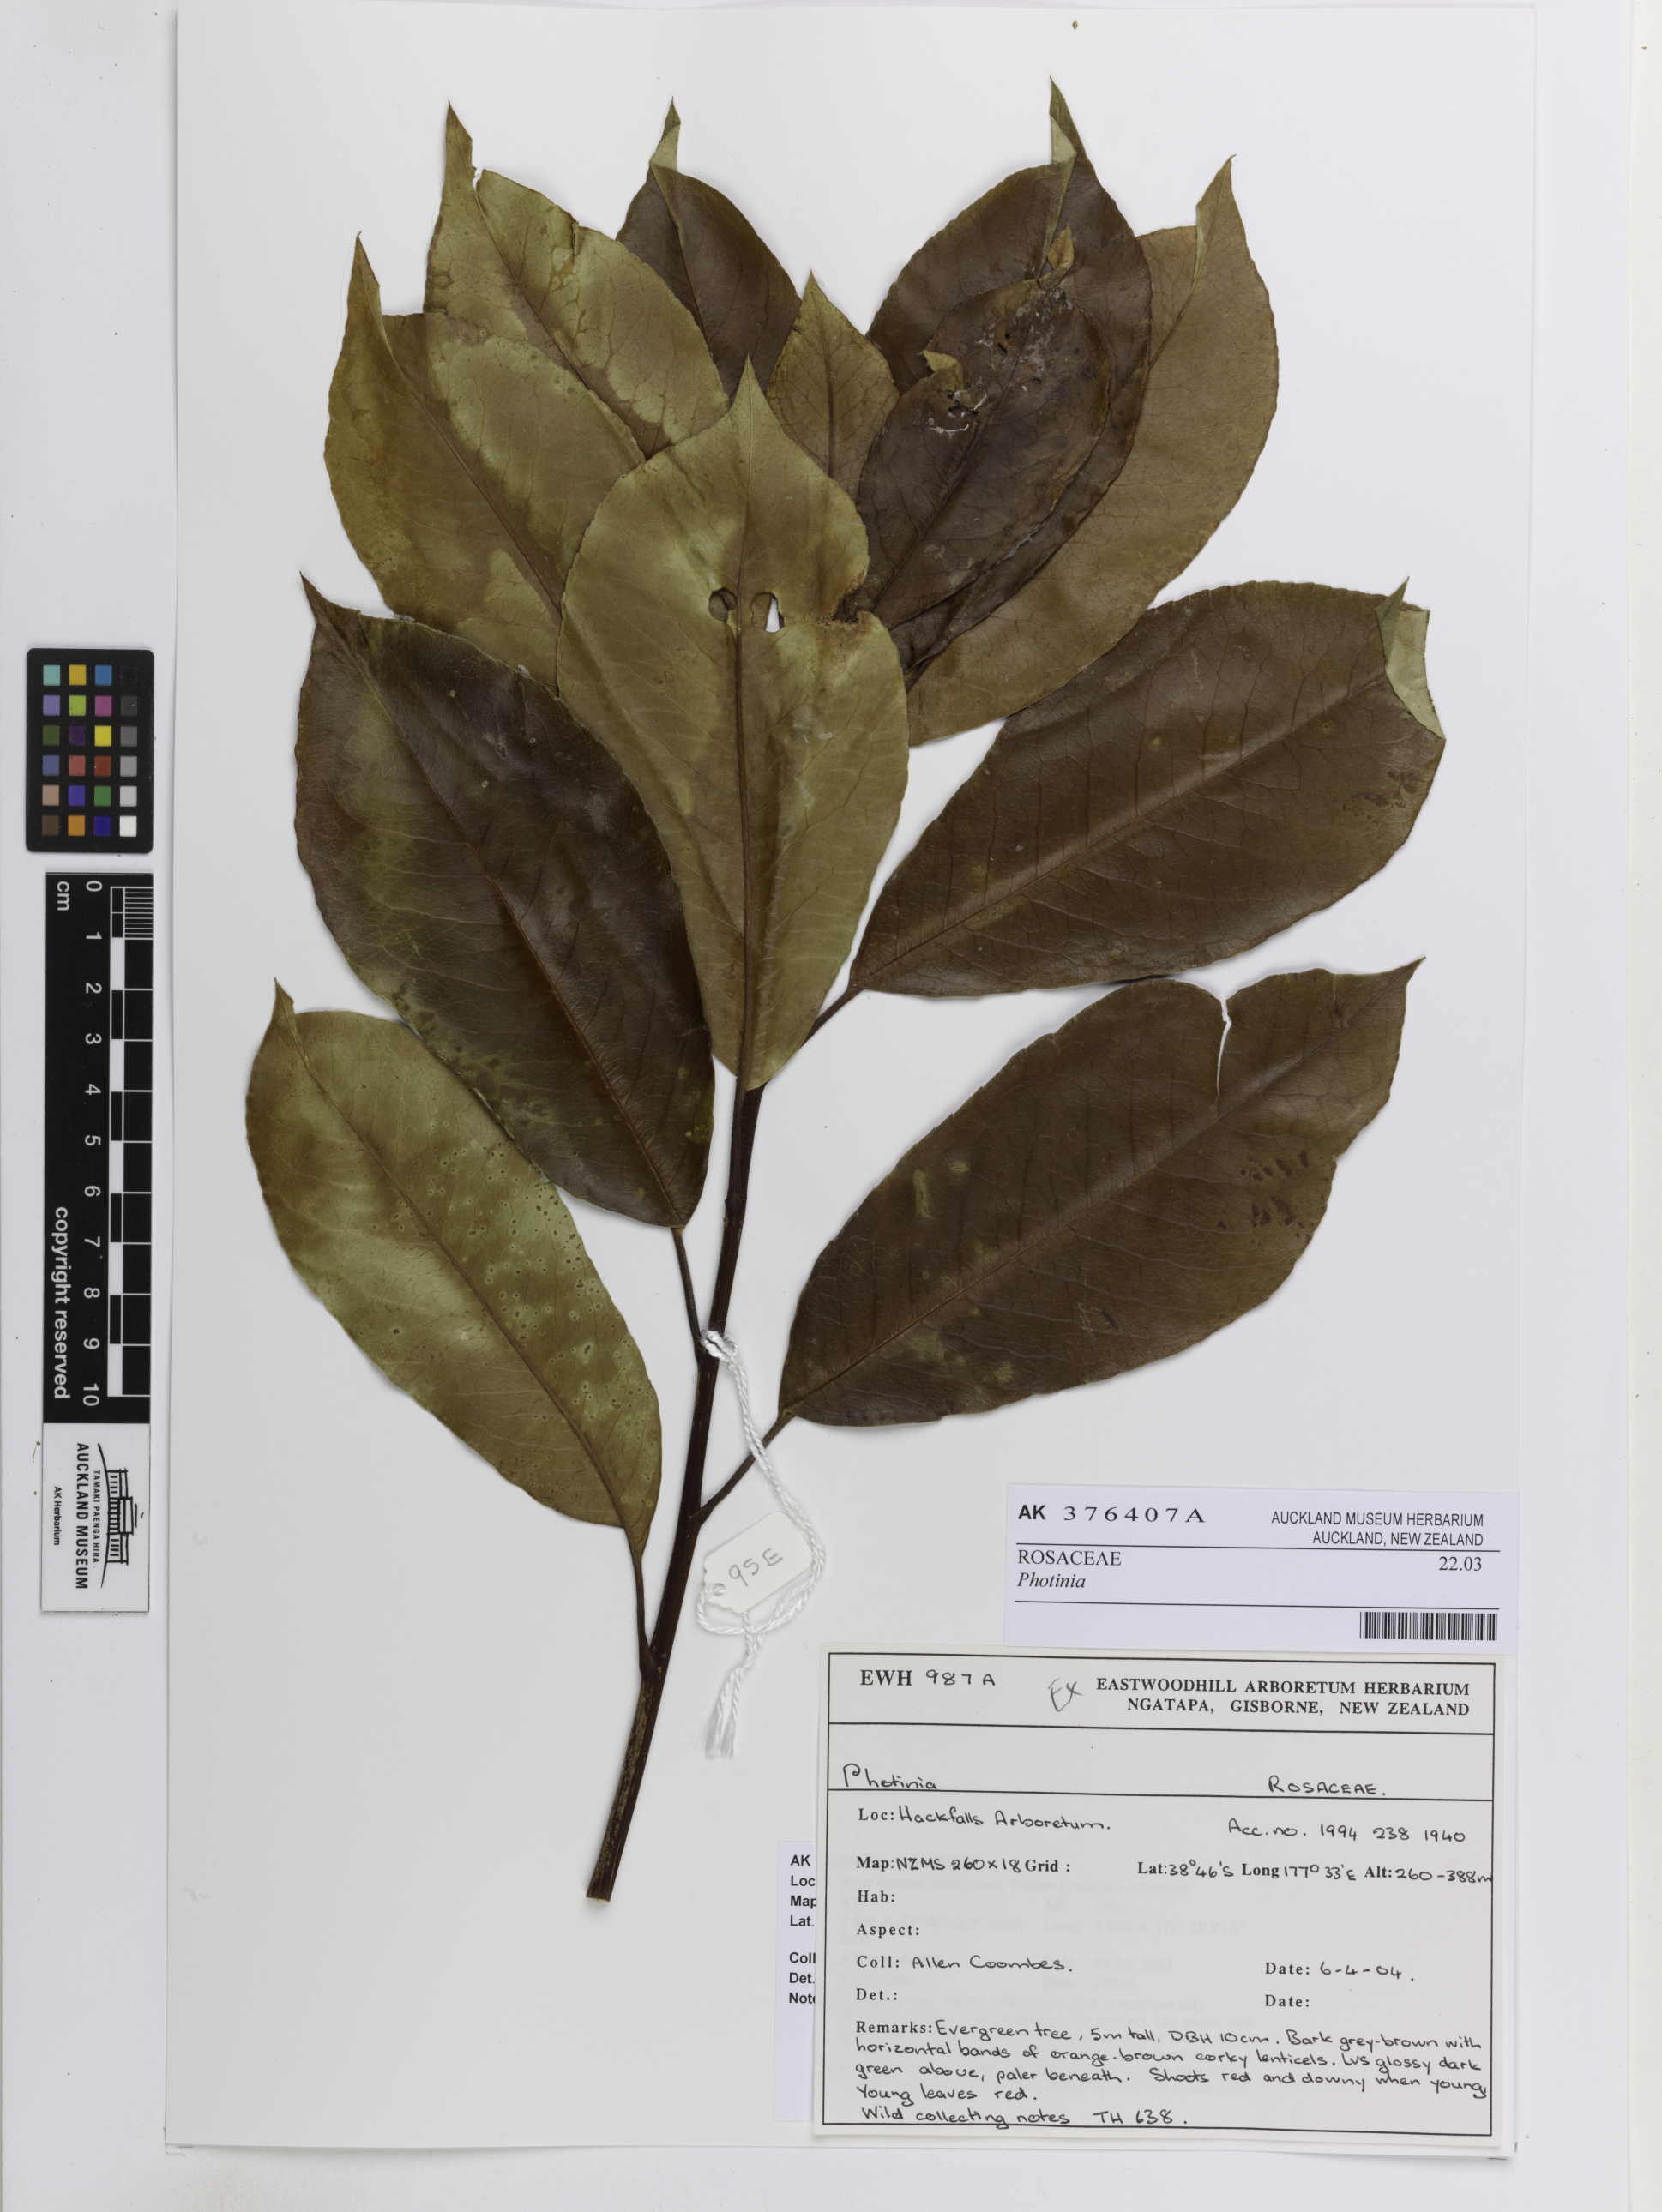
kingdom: Plantae
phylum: Tracheophyta
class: Magnoliopsida
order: Rosales
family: Rosaceae
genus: Photinia
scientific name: Photinia
